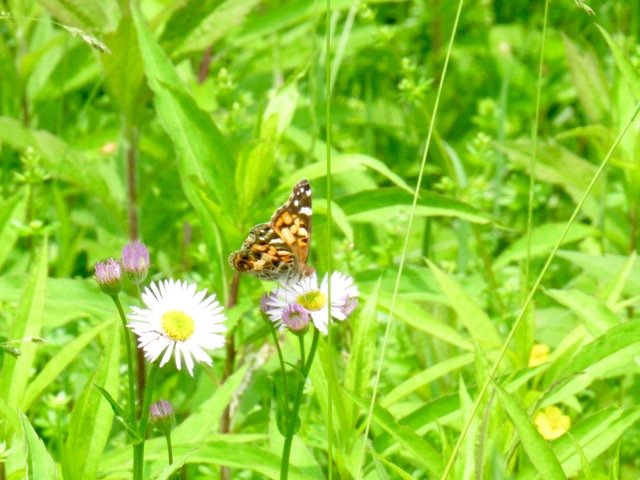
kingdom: Animalia
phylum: Arthropoda
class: Insecta
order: Lepidoptera
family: Nymphalidae
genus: Vanessa
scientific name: Vanessa virginiensis
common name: American Lady
